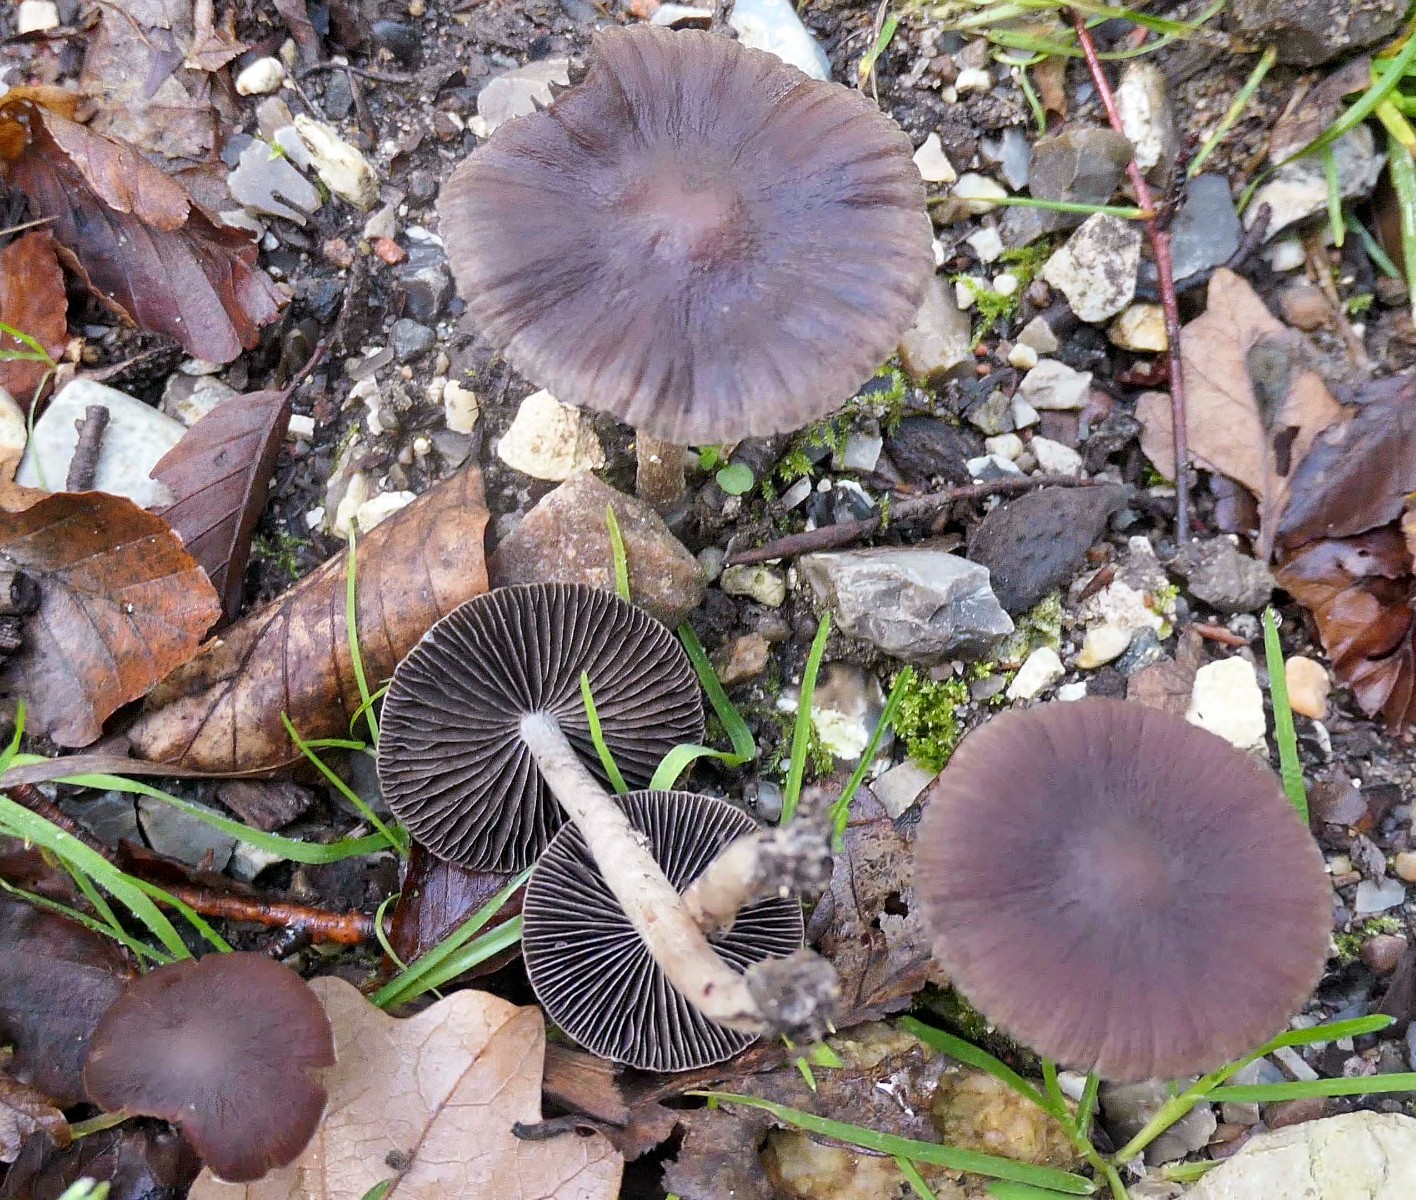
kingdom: Fungi
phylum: Basidiomycota
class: Agaricomycetes
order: Agaricales
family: Psathyrellaceae
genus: Psathyrella
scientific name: Psathyrella bipellis
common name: vinrød mørkhat
